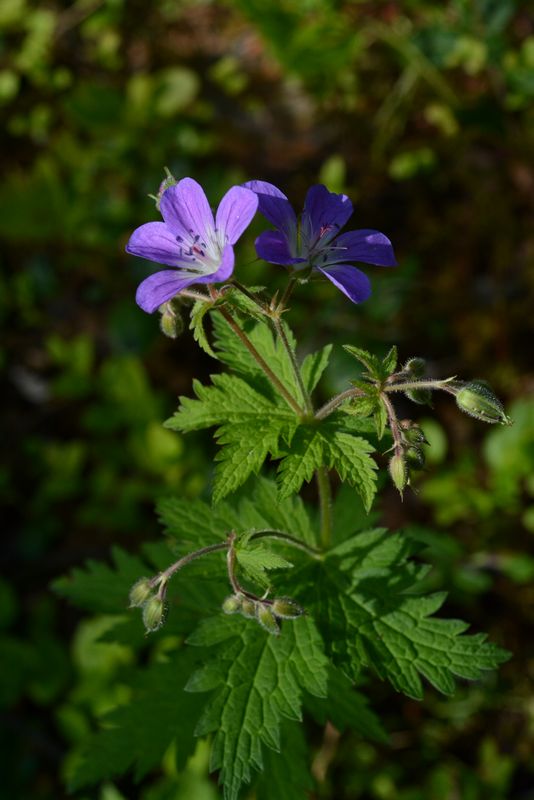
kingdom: Plantae
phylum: Tracheophyta
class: Magnoliopsida
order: Geraniales
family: Geraniaceae
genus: Geranium
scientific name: Geranium sylvaticum
